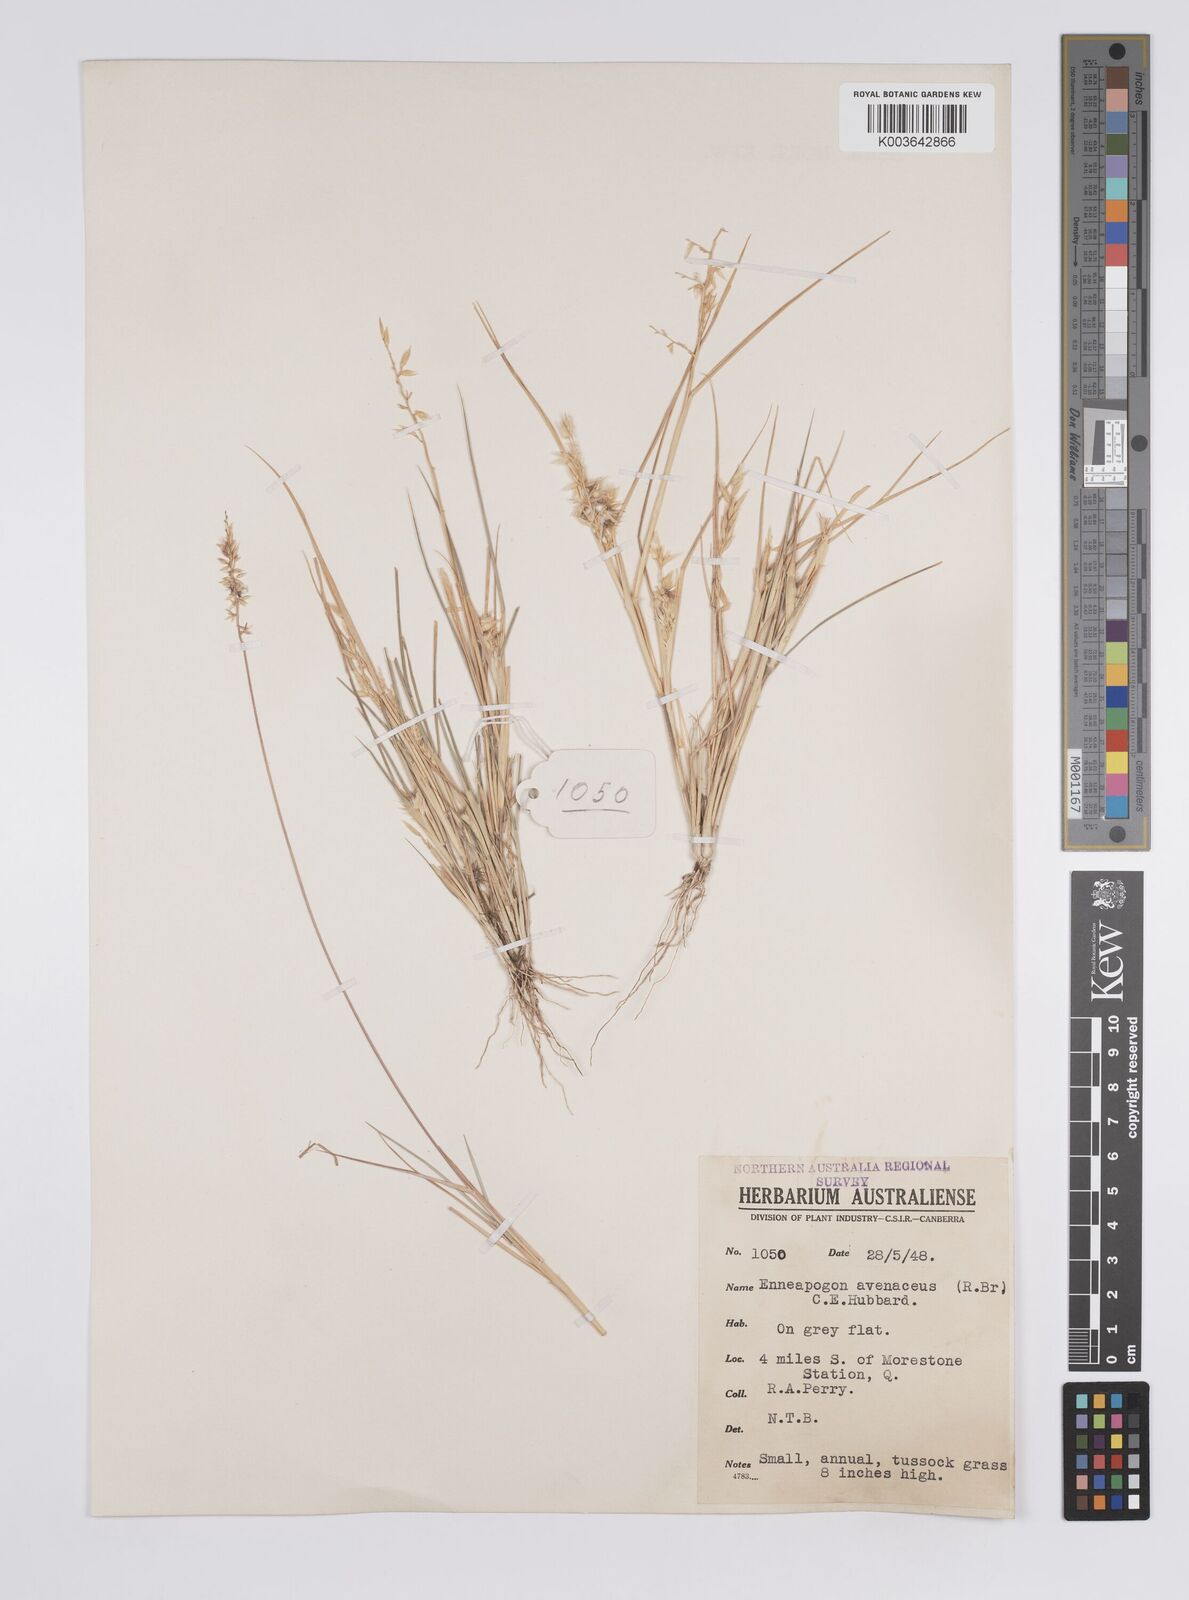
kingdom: Plantae
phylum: Tracheophyta
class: Liliopsida
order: Poales
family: Poaceae
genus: Enneapogon
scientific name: Enneapogon avenaceus
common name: Hairy oat grass
